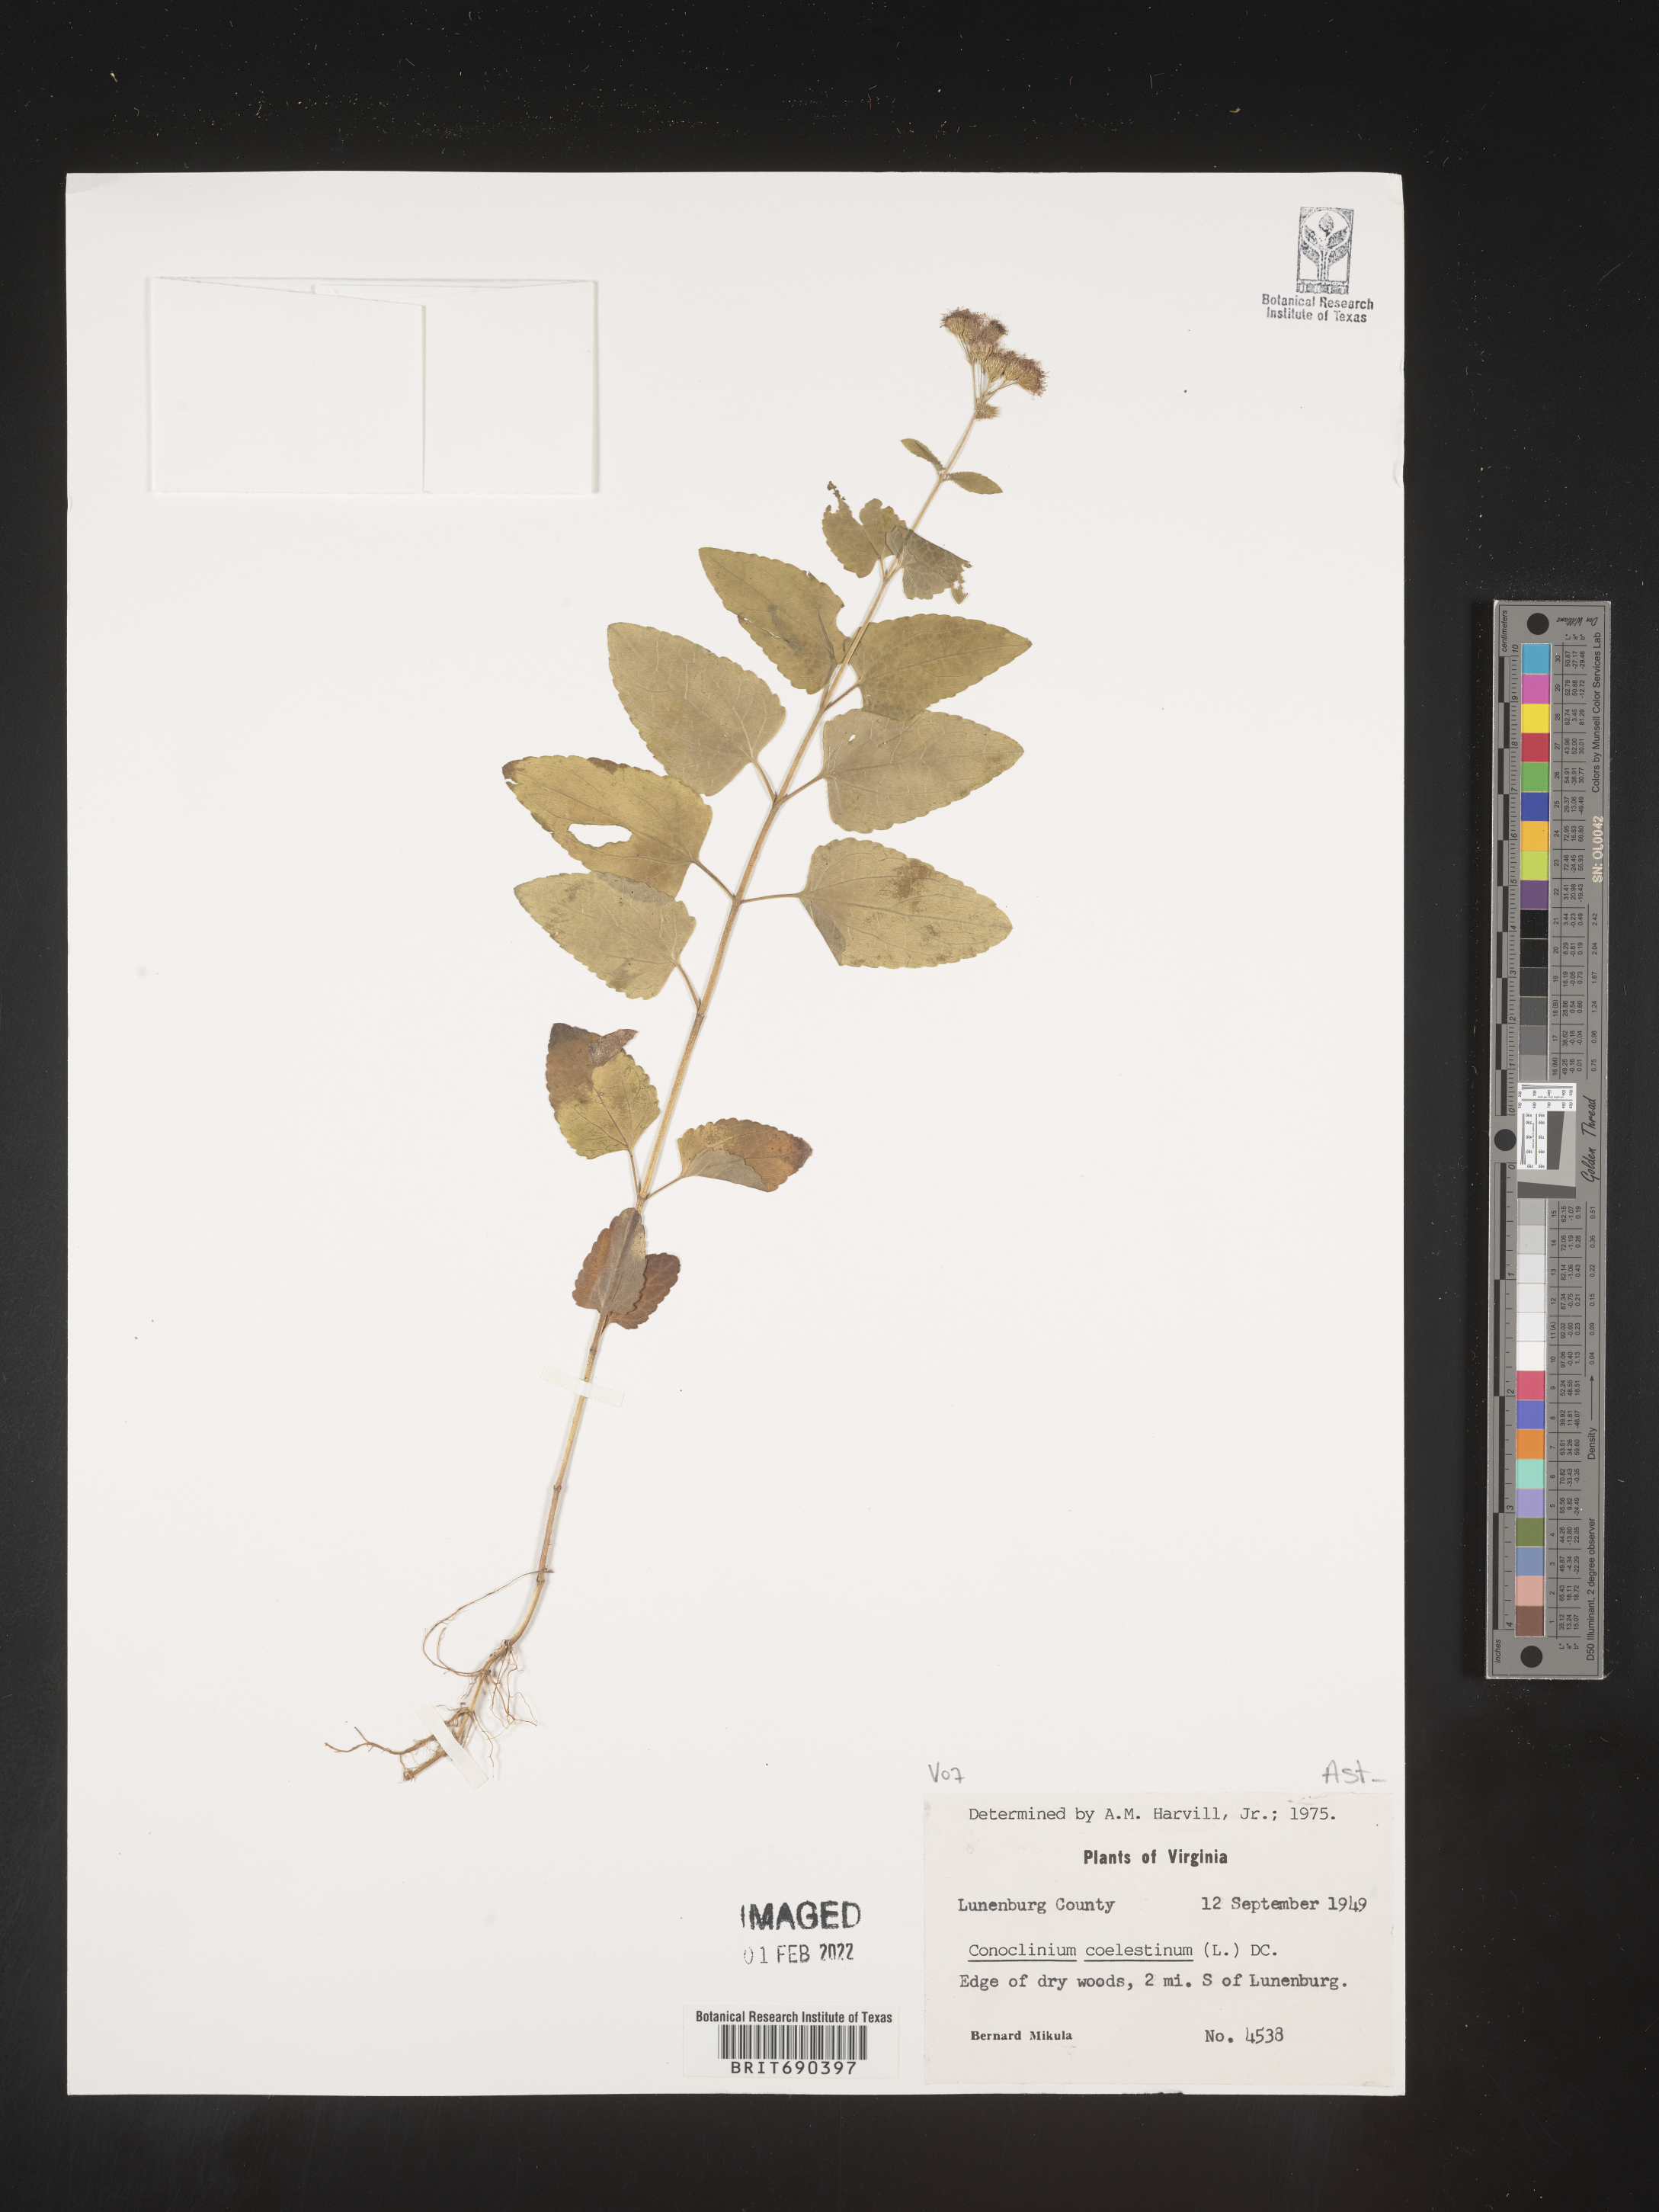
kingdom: Plantae
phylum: Tracheophyta
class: Magnoliopsida
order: Asterales
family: Asteraceae
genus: Conoclinium
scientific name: Conoclinium coelestinum
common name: Blue mistflower
